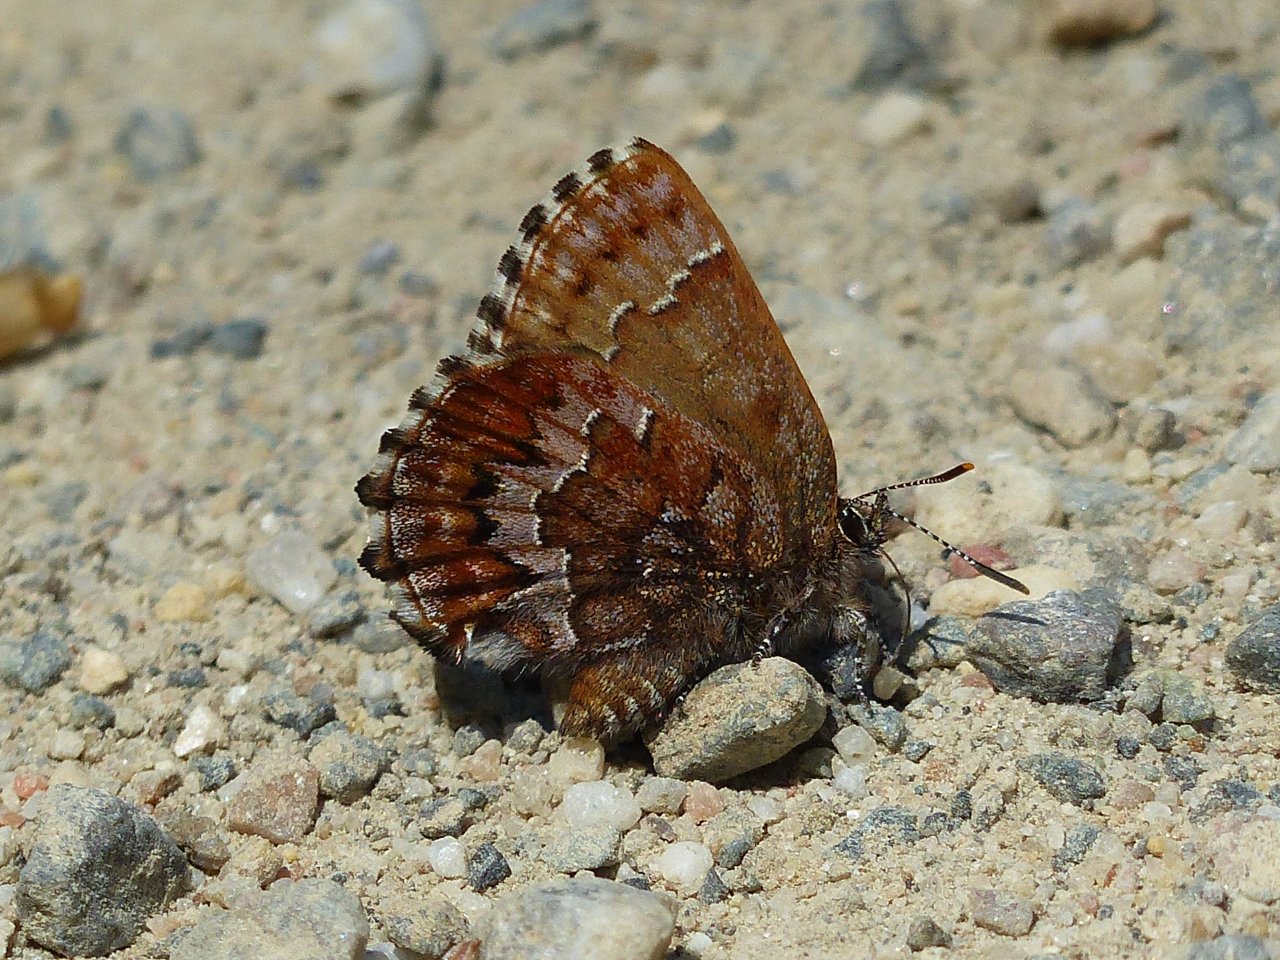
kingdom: Animalia
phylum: Arthropoda
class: Insecta
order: Lepidoptera
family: Lycaenidae
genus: Incisalia
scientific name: Incisalia niphon
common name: Eastern Pine Elfin
